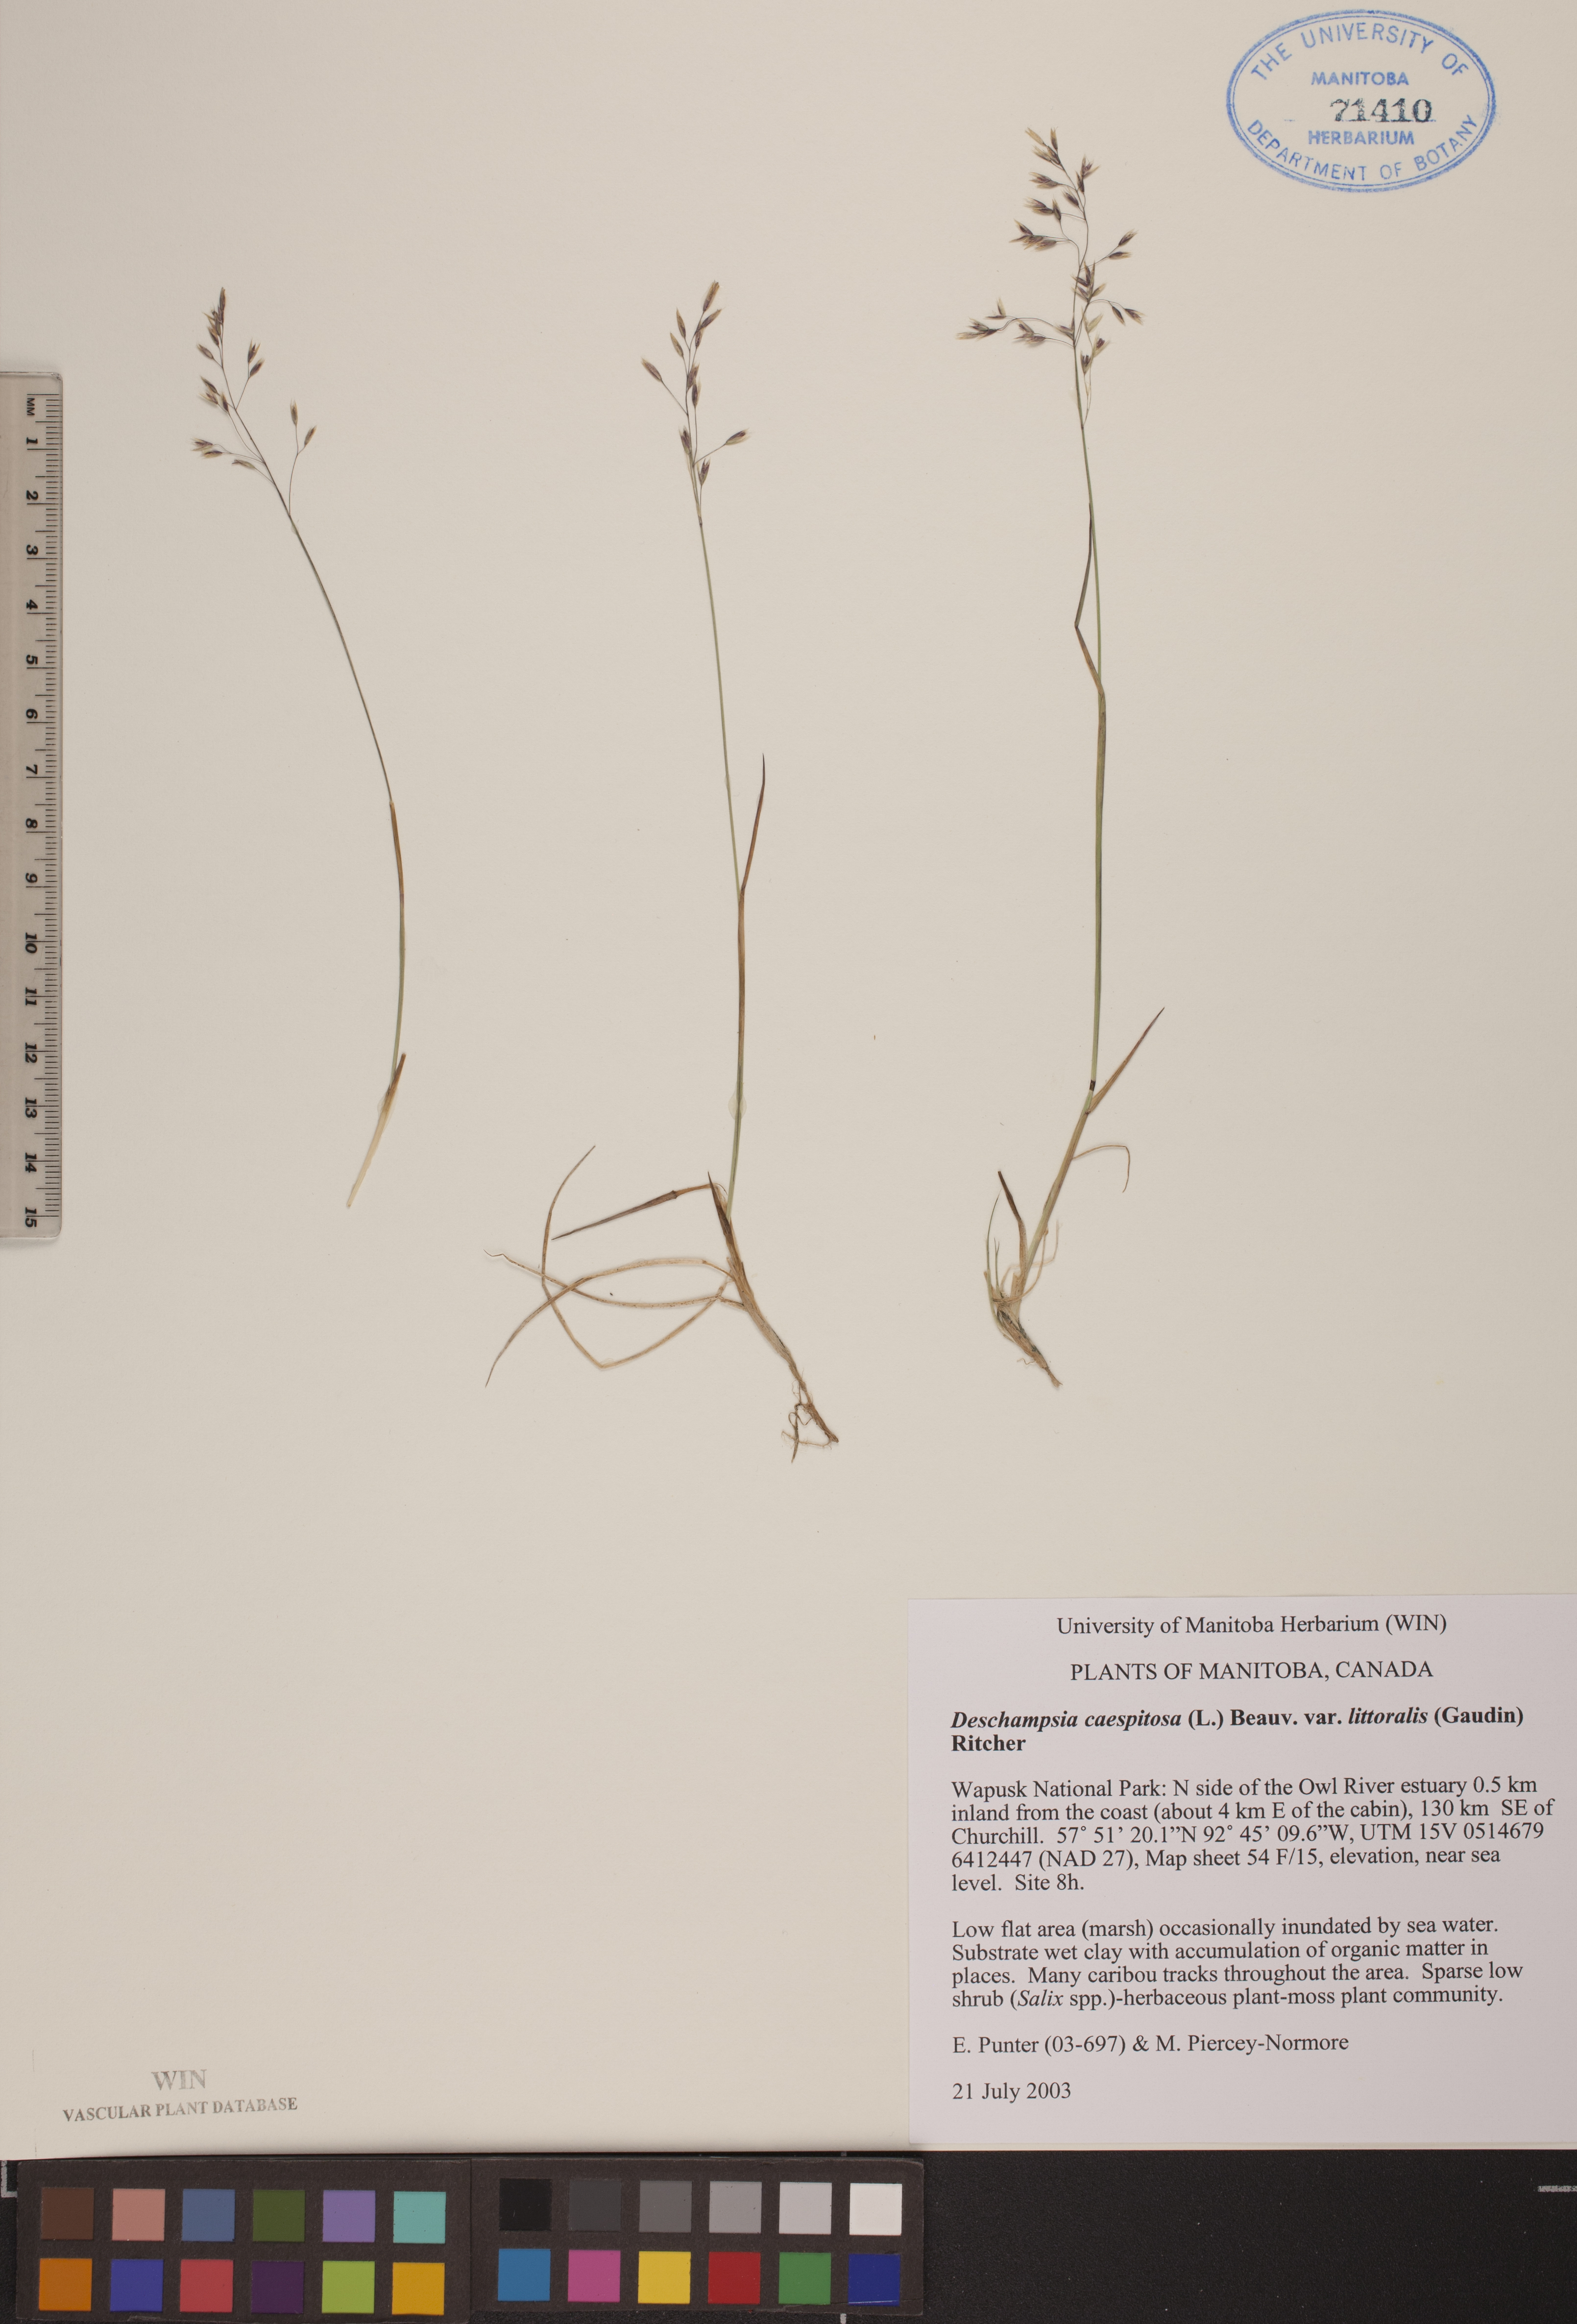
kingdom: Plantae
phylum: Tracheophyta
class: Liliopsida
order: Poales
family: Poaceae
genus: Deschampsia
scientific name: Deschampsia cespitosa
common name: Tufted hair-grass
